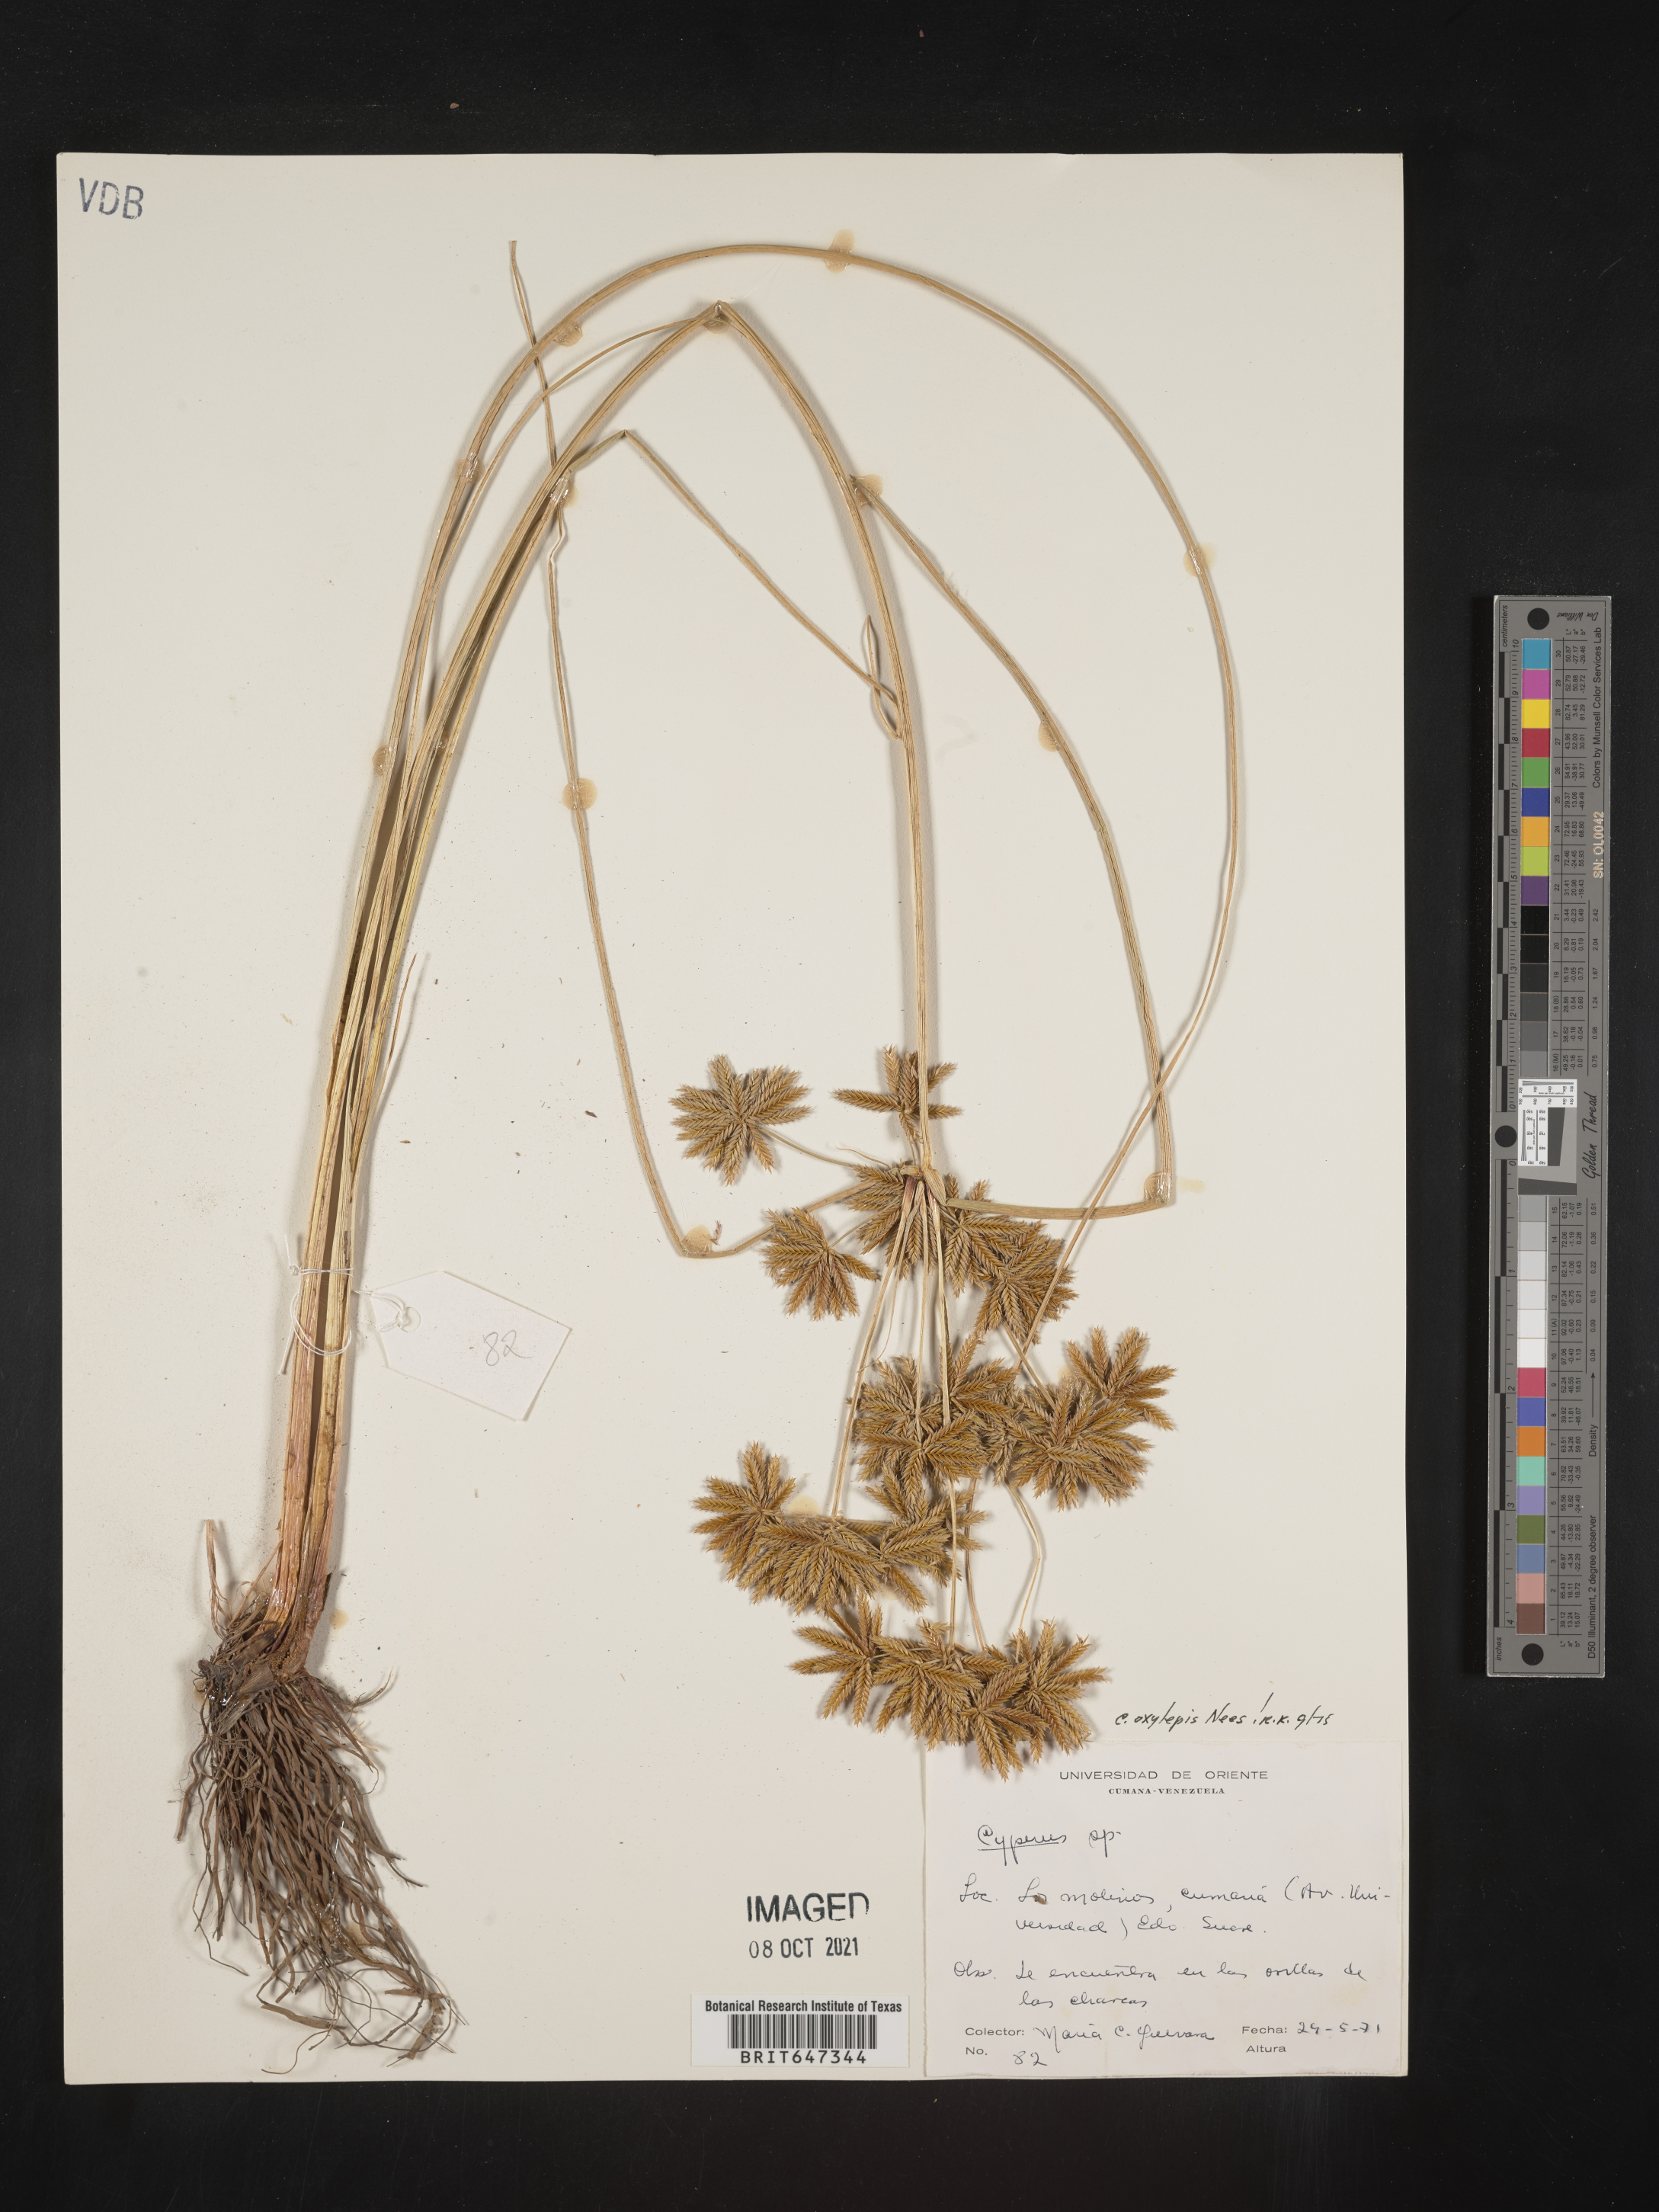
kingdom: Plantae
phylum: Tracheophyta
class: Liliopsida
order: Poales
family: Cyperaceae
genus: Cyperus
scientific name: Cyperus oxylepis
